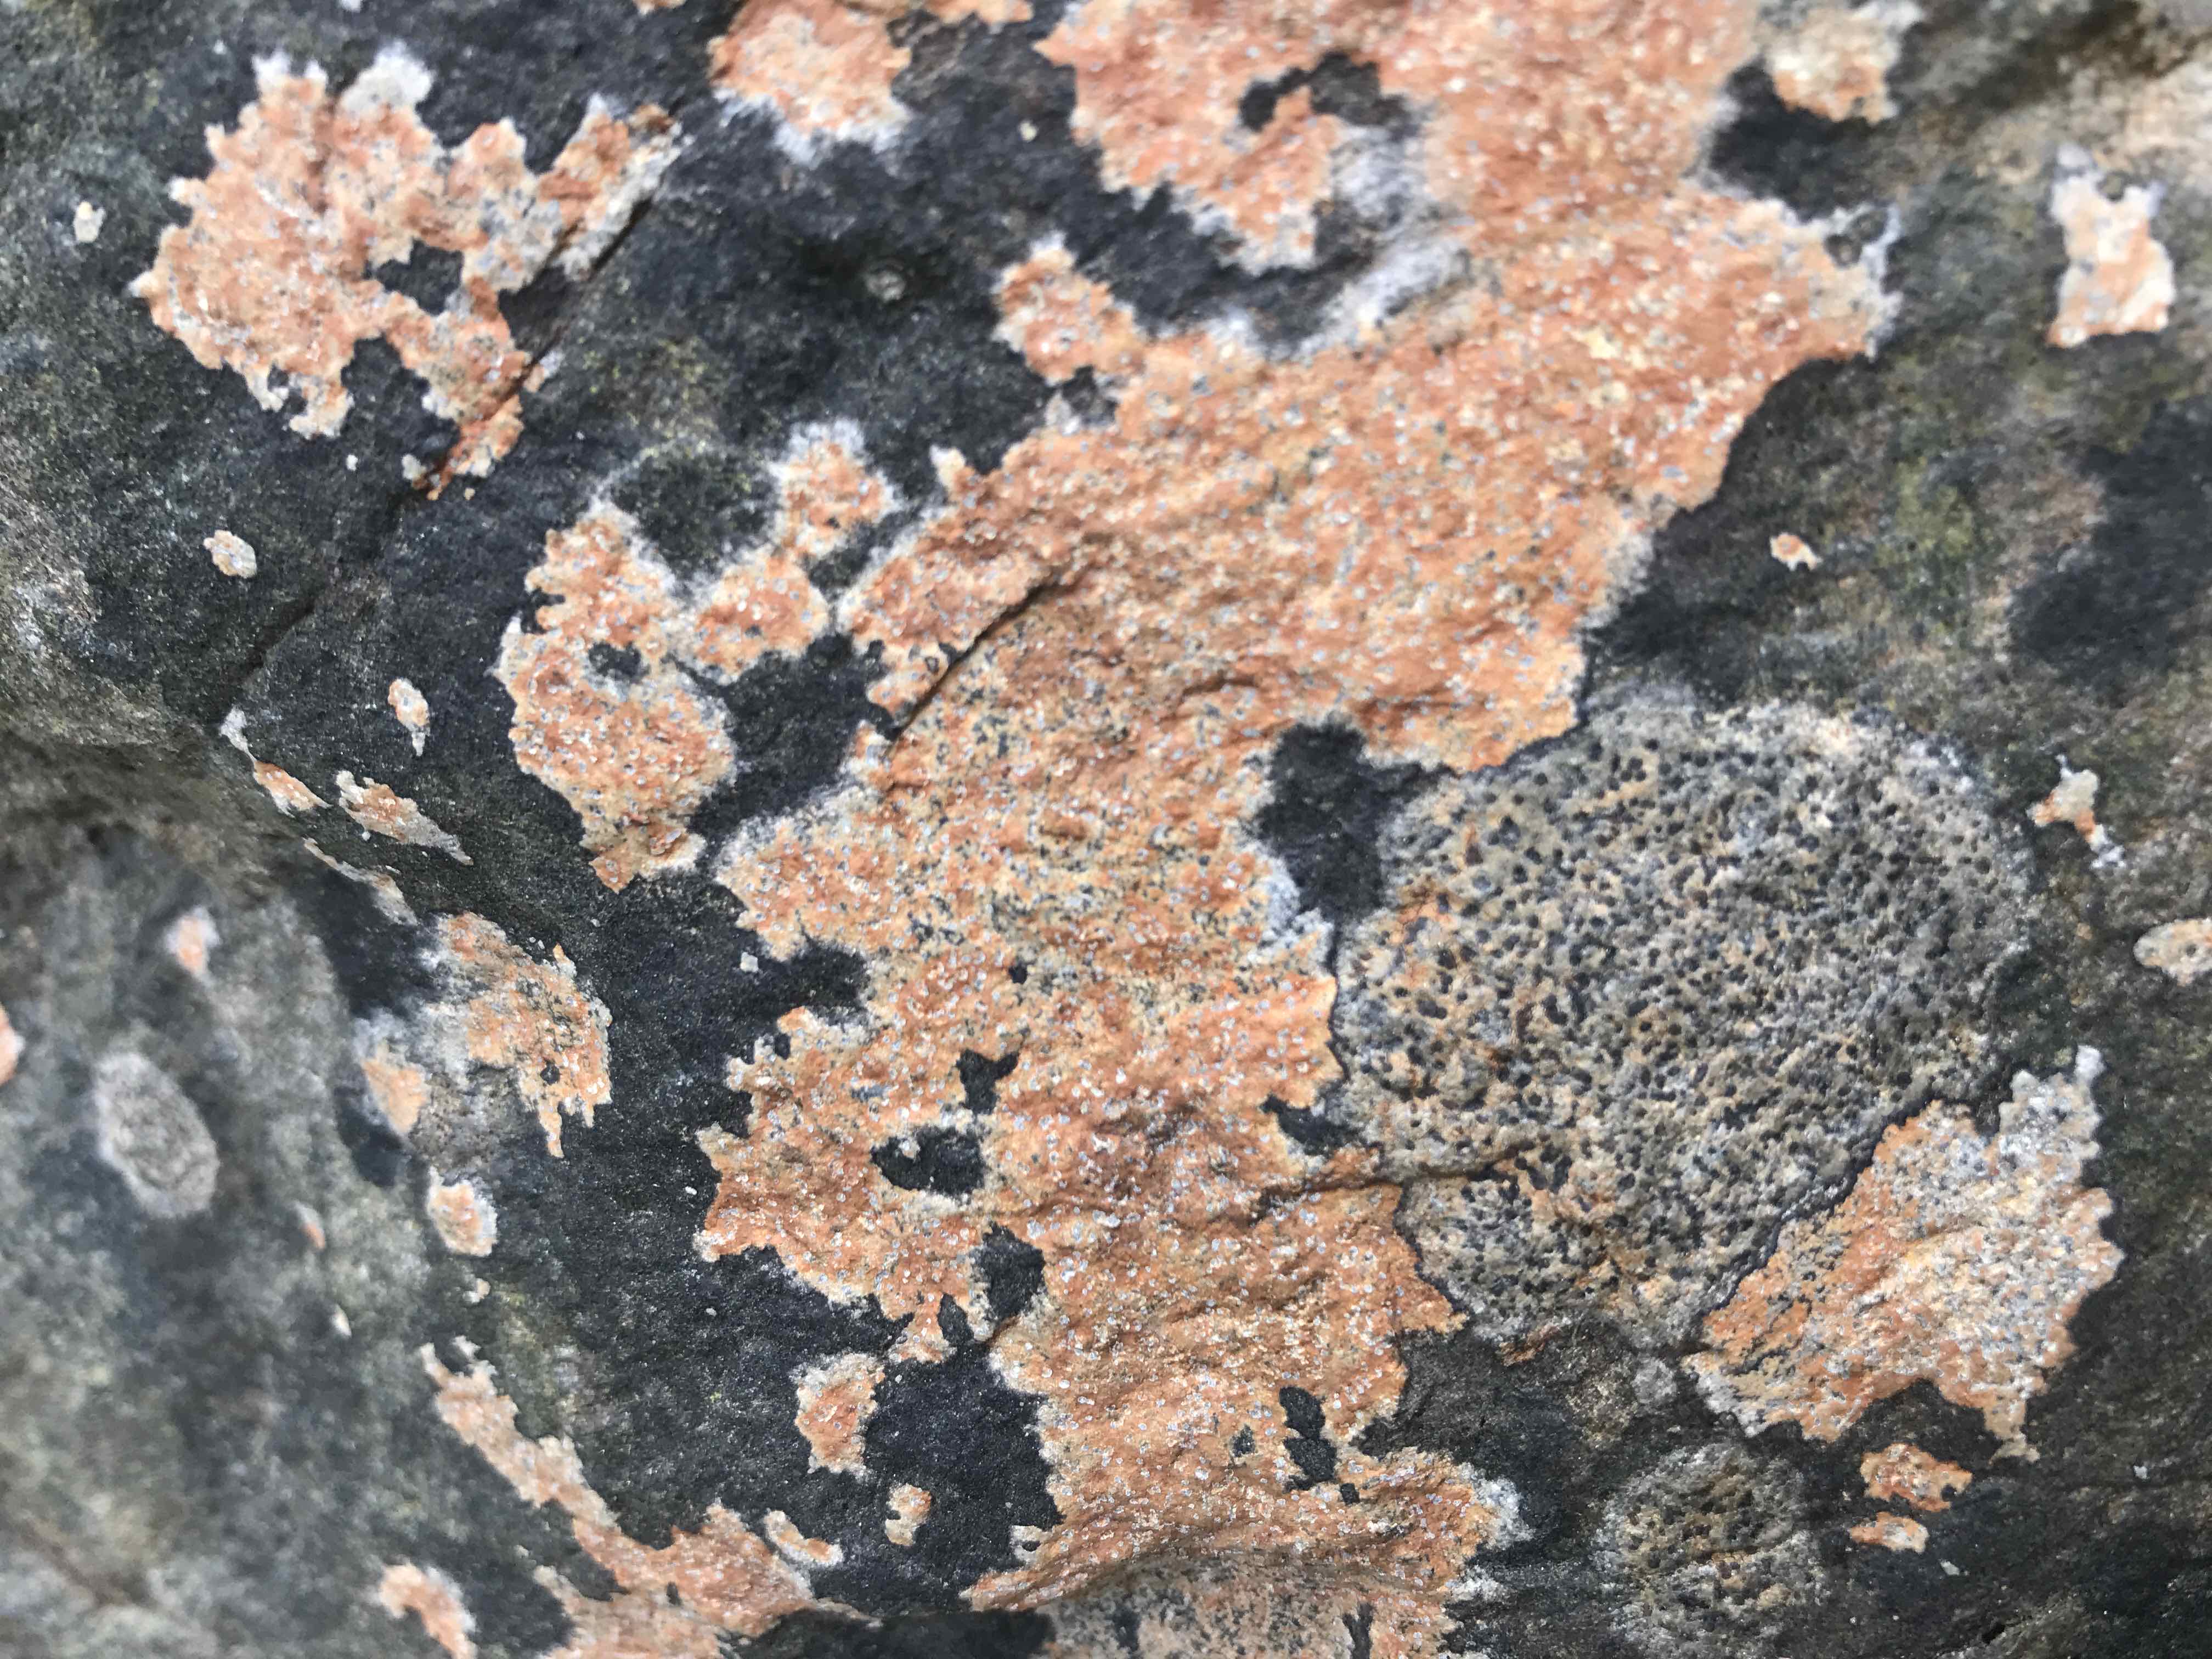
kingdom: Fungi
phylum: Ascomycota
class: Lecanoromycetes
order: Lecideales
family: Lecideaceae
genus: Porpidia
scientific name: Porpidia tuberculosa
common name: broget bredskivelav
